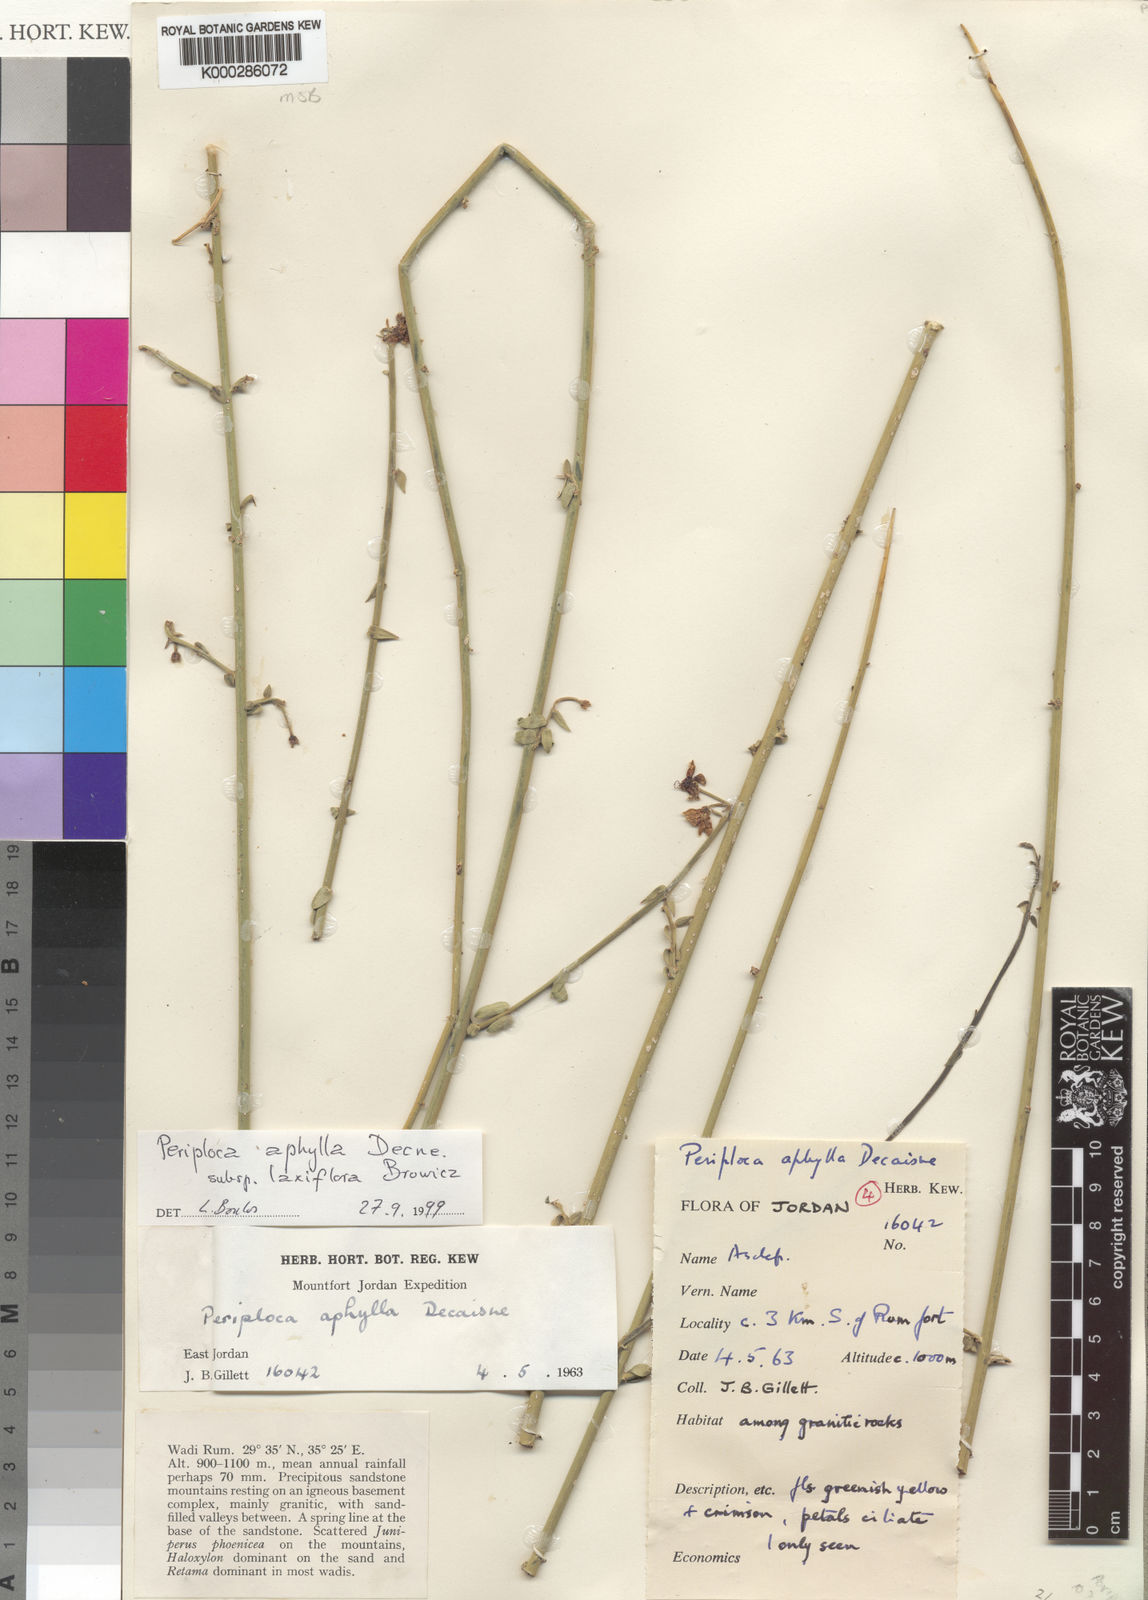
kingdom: Plantae
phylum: Tracheophyta
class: Magnoliopsida
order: Gentianales
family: Apocynaceae
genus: Periploca
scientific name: Periploca aphylla
